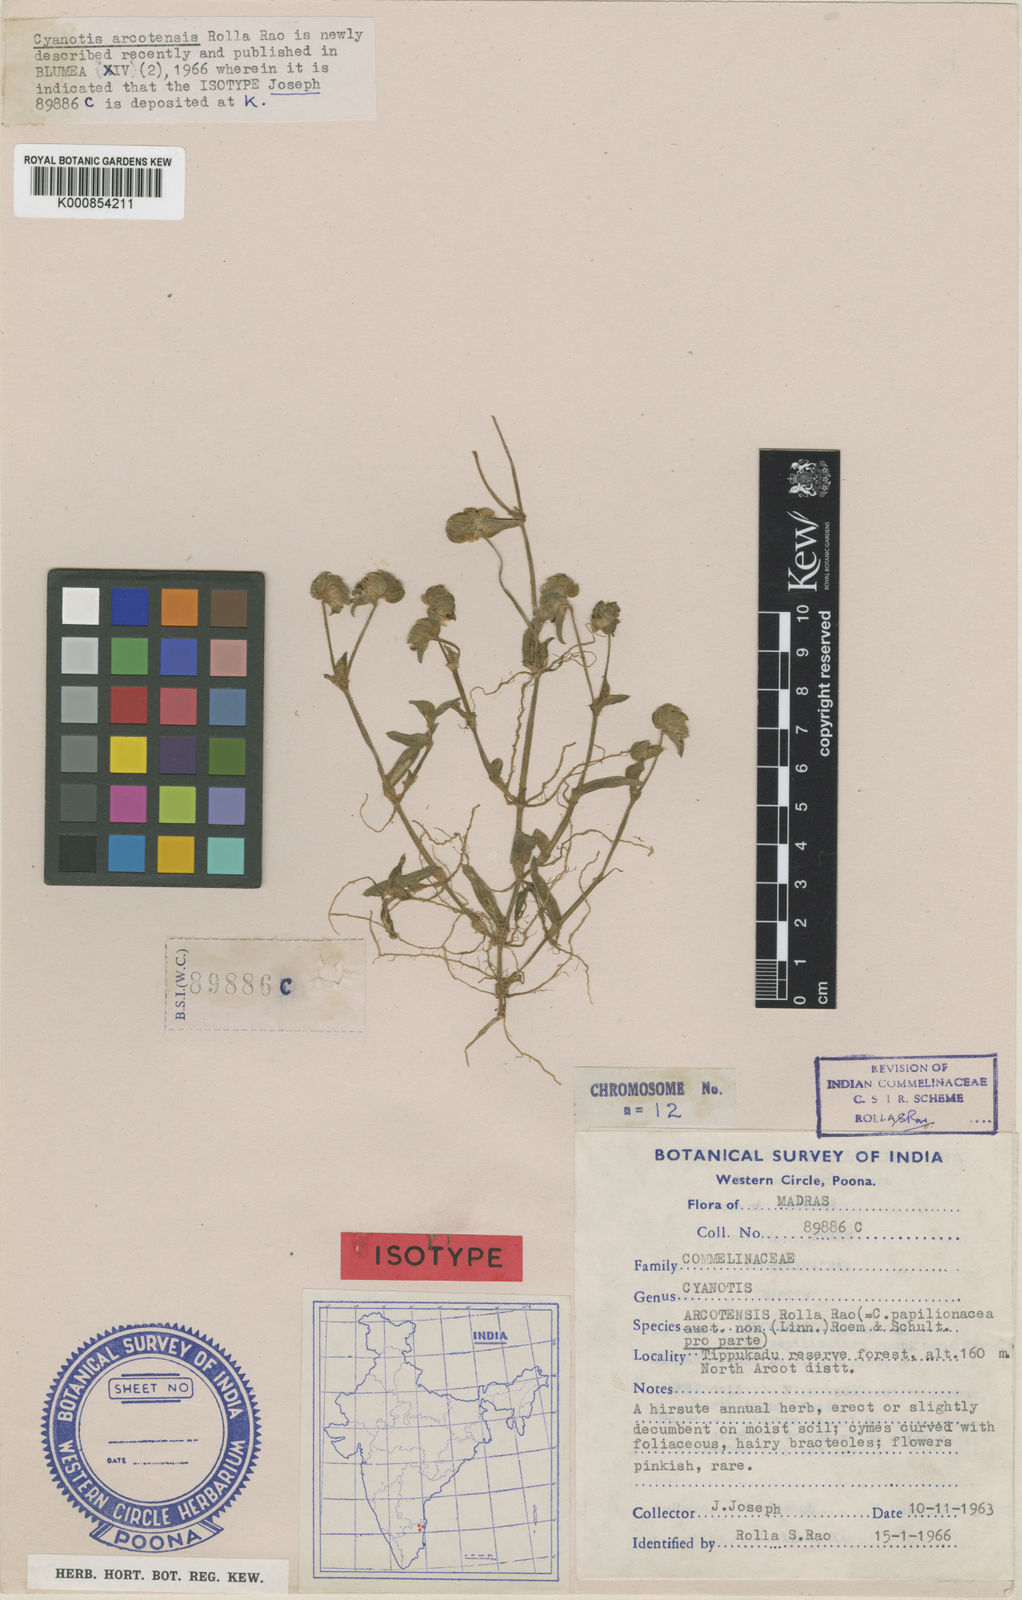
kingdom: Plantae
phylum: Tracheophyta
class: Liliopsida
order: Commelinales
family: Commelinaceae
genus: Cyanotis
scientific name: Cyanotis arcotensis
